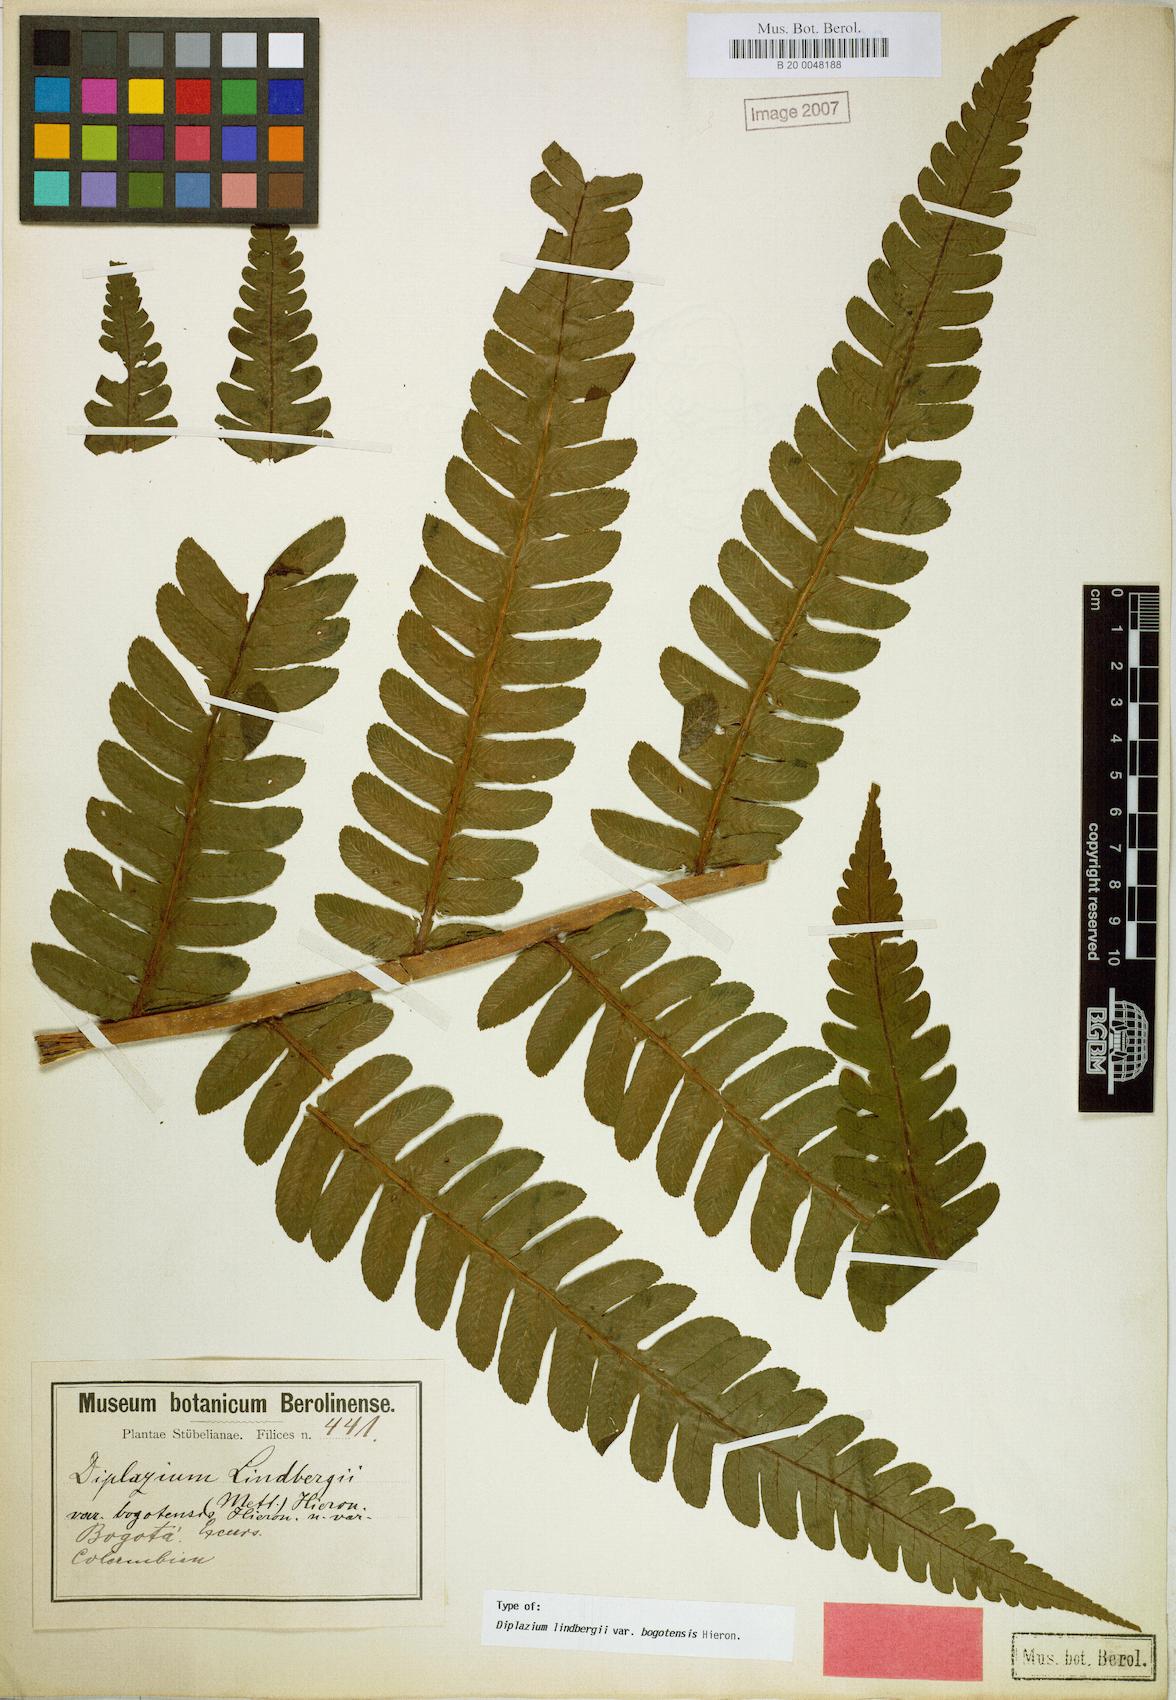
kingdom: Plantae
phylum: Tracheophyta
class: Polypodiopsida
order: Polypodiales
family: Athyriaceae
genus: Diplazium
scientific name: Diplazium lindbergii
